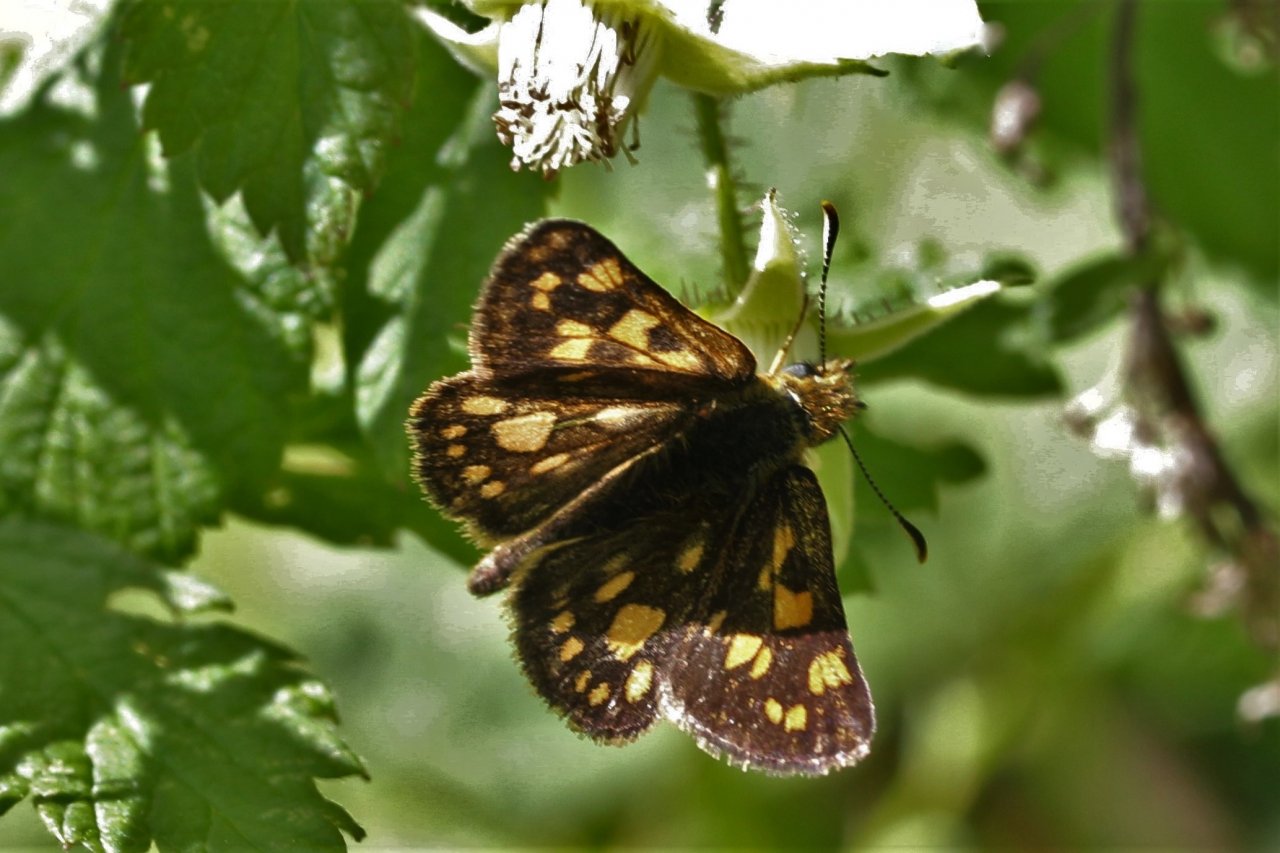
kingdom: Animalia
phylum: Arthropoda
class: Insecta
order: Lepidoptera
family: Hesperiidae
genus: Carterocephalus
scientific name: Carterocephalus palaemon
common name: Chequered Skipper
